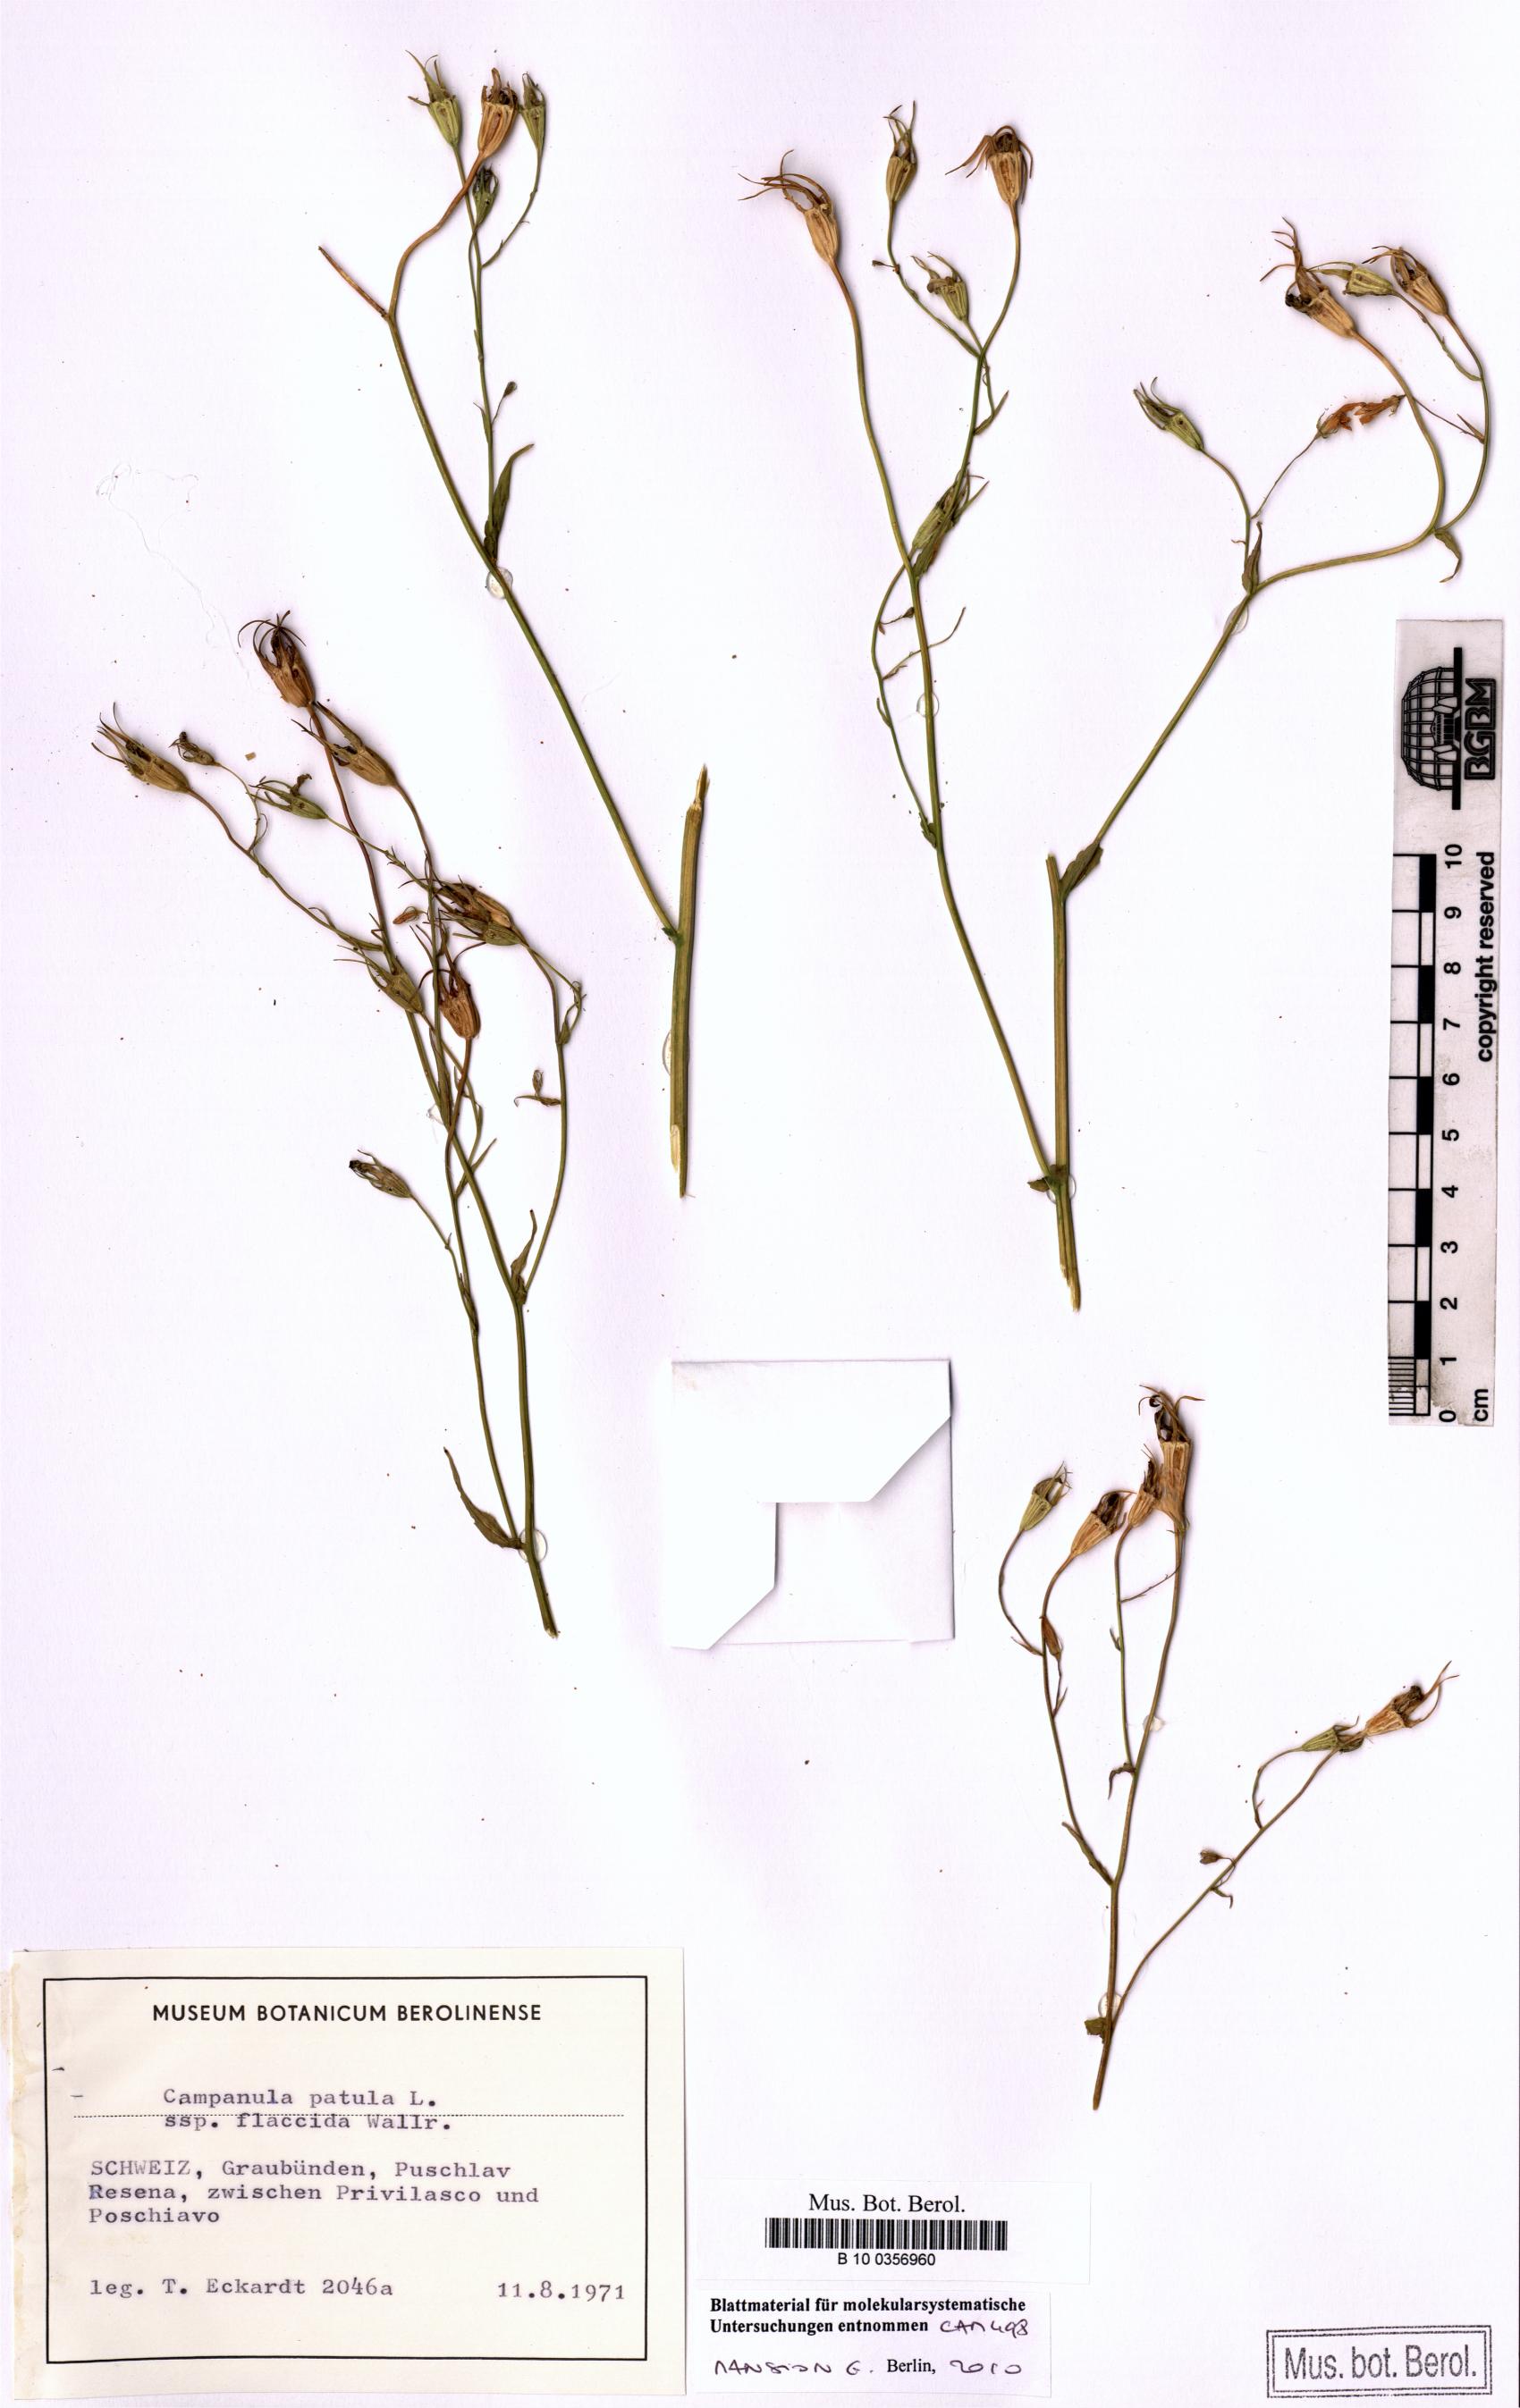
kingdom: Plantae
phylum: Tracheophyta
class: Magnoliopsida
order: Asterales
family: Campanulaceae
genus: Campanula
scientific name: Campanula patula
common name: Spreading bellflower
